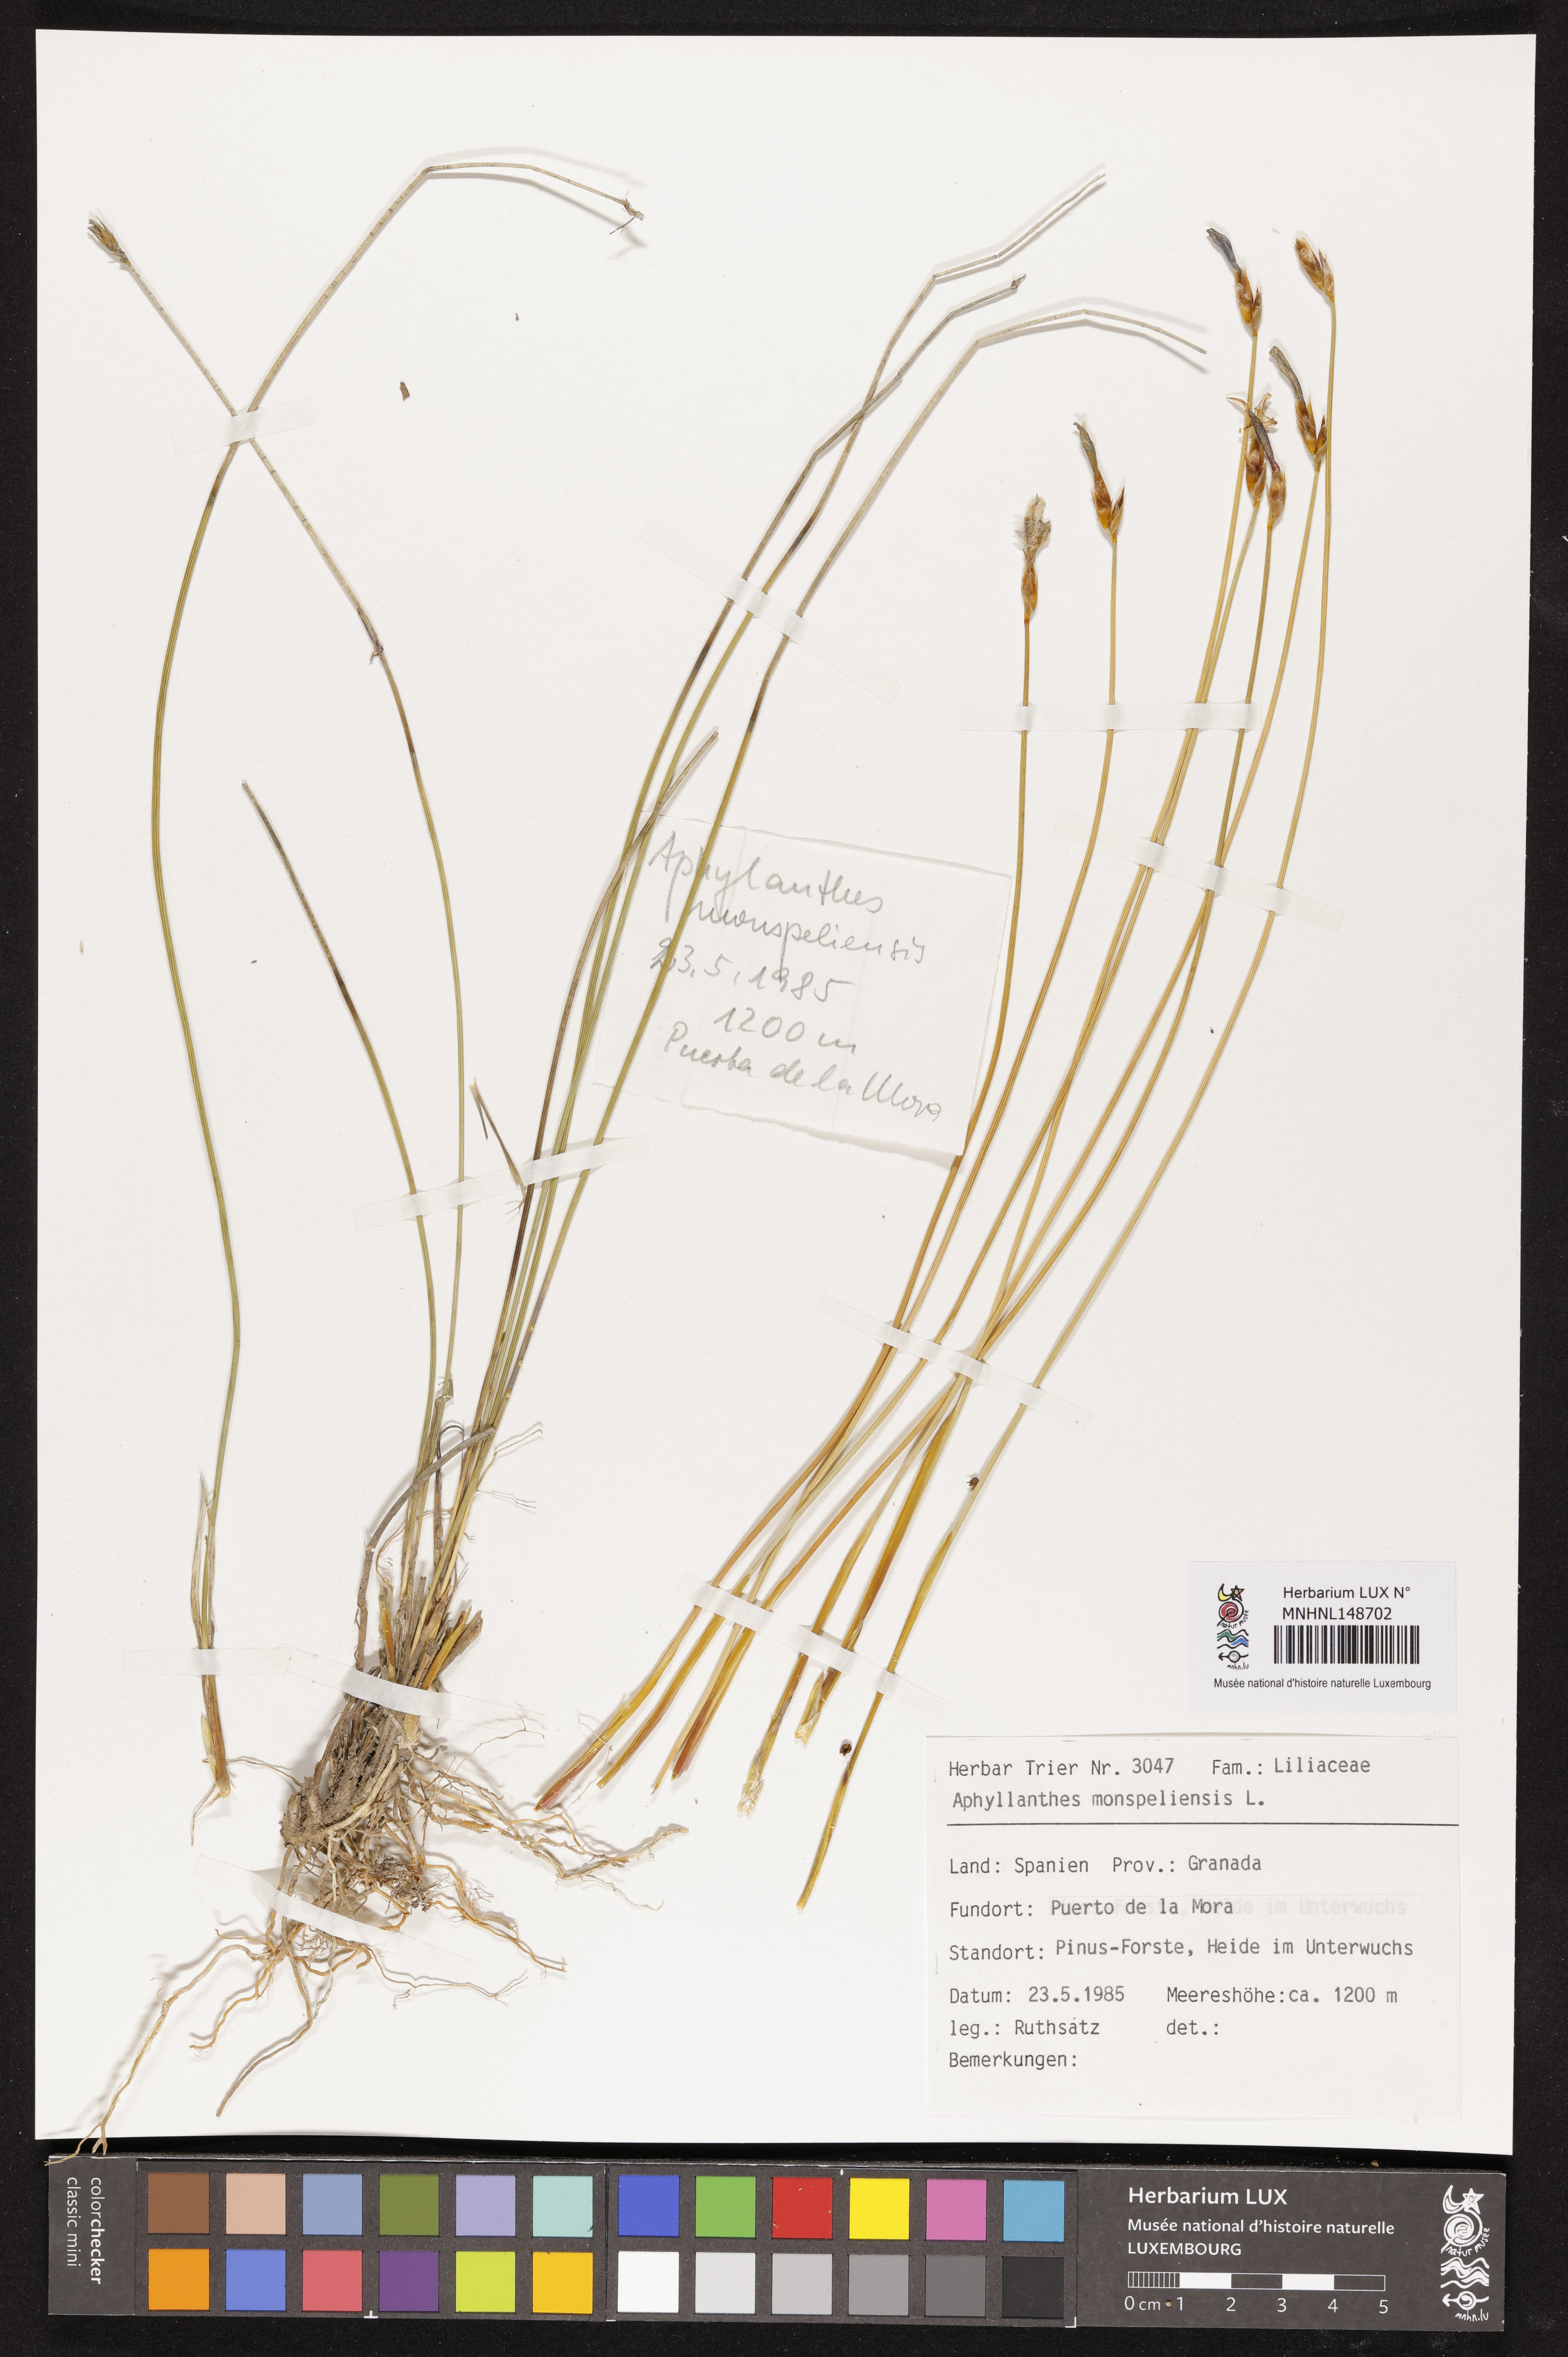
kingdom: Plantae
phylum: Tracheophyta
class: Liliopsida
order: Asparagales
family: Asparagaceae
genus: Aphyllanthes
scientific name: Aphyllanthes monspeliensis
